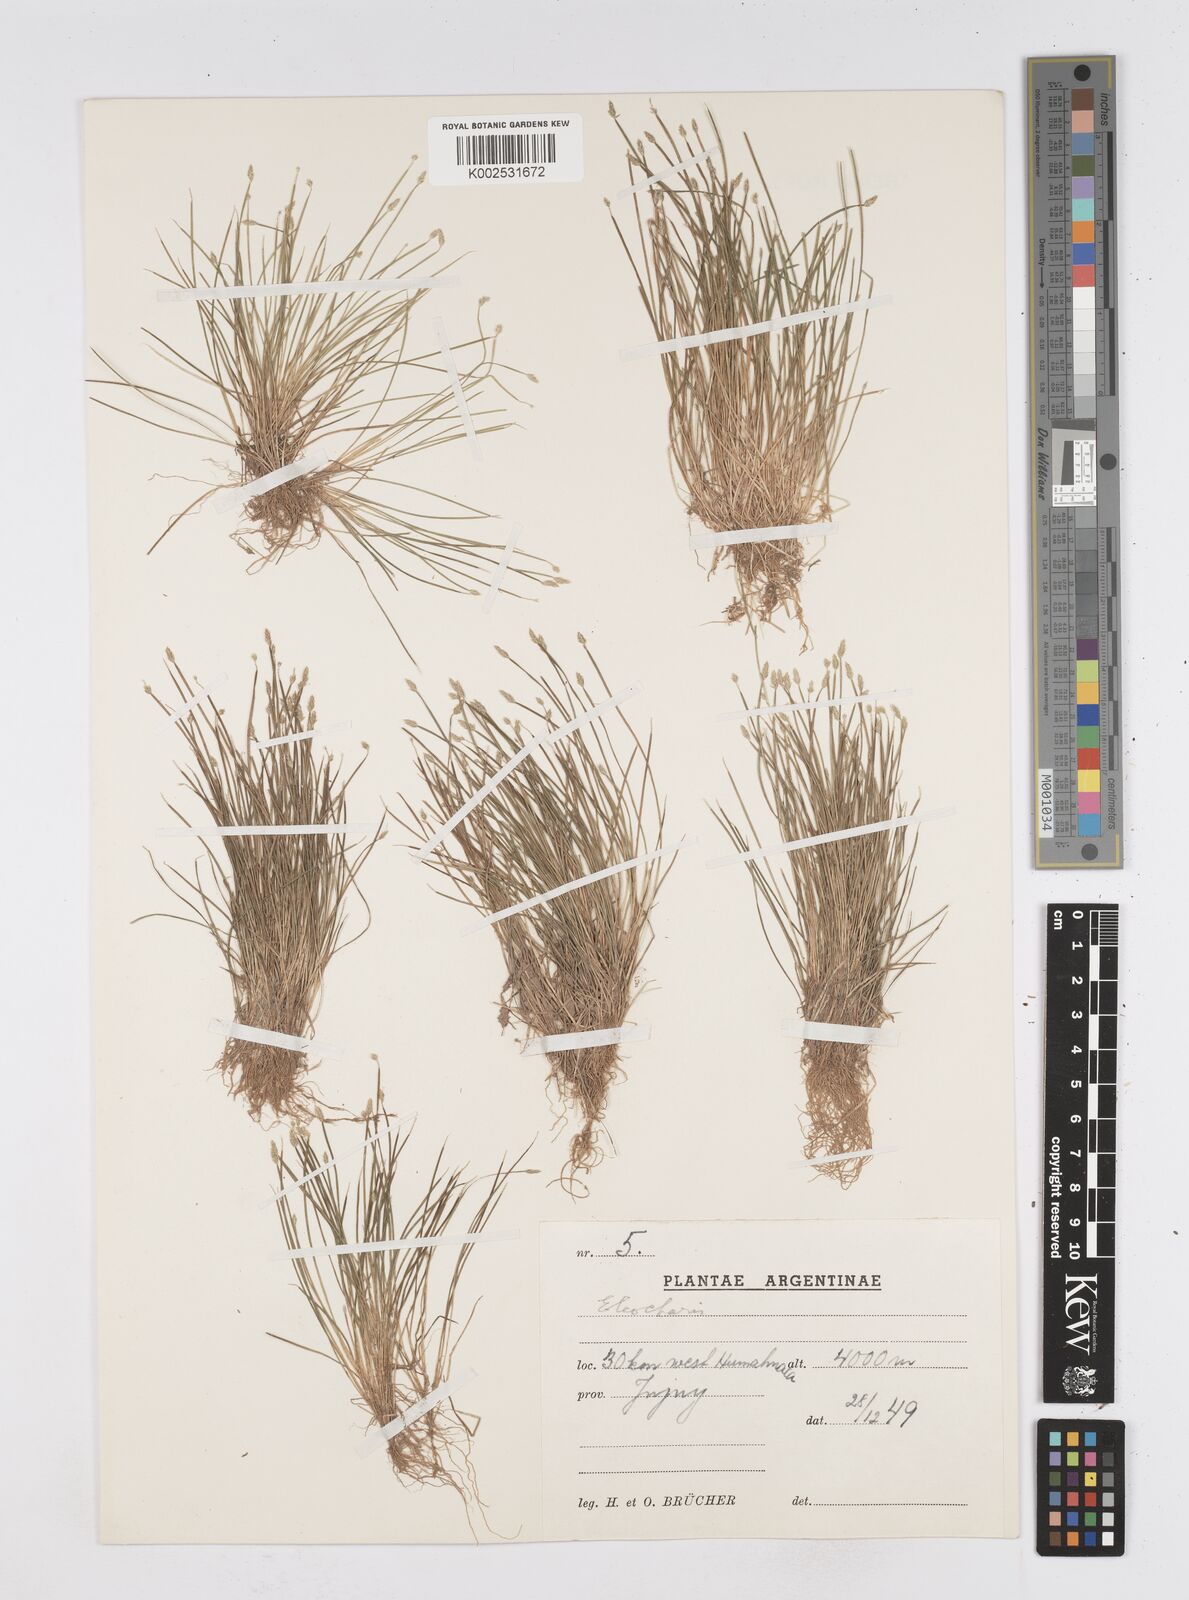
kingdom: Plantae
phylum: Tracheophyta
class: Liliopsida
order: Poales
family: Cyperaceae
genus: Eleocharis
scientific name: Eleocharis
